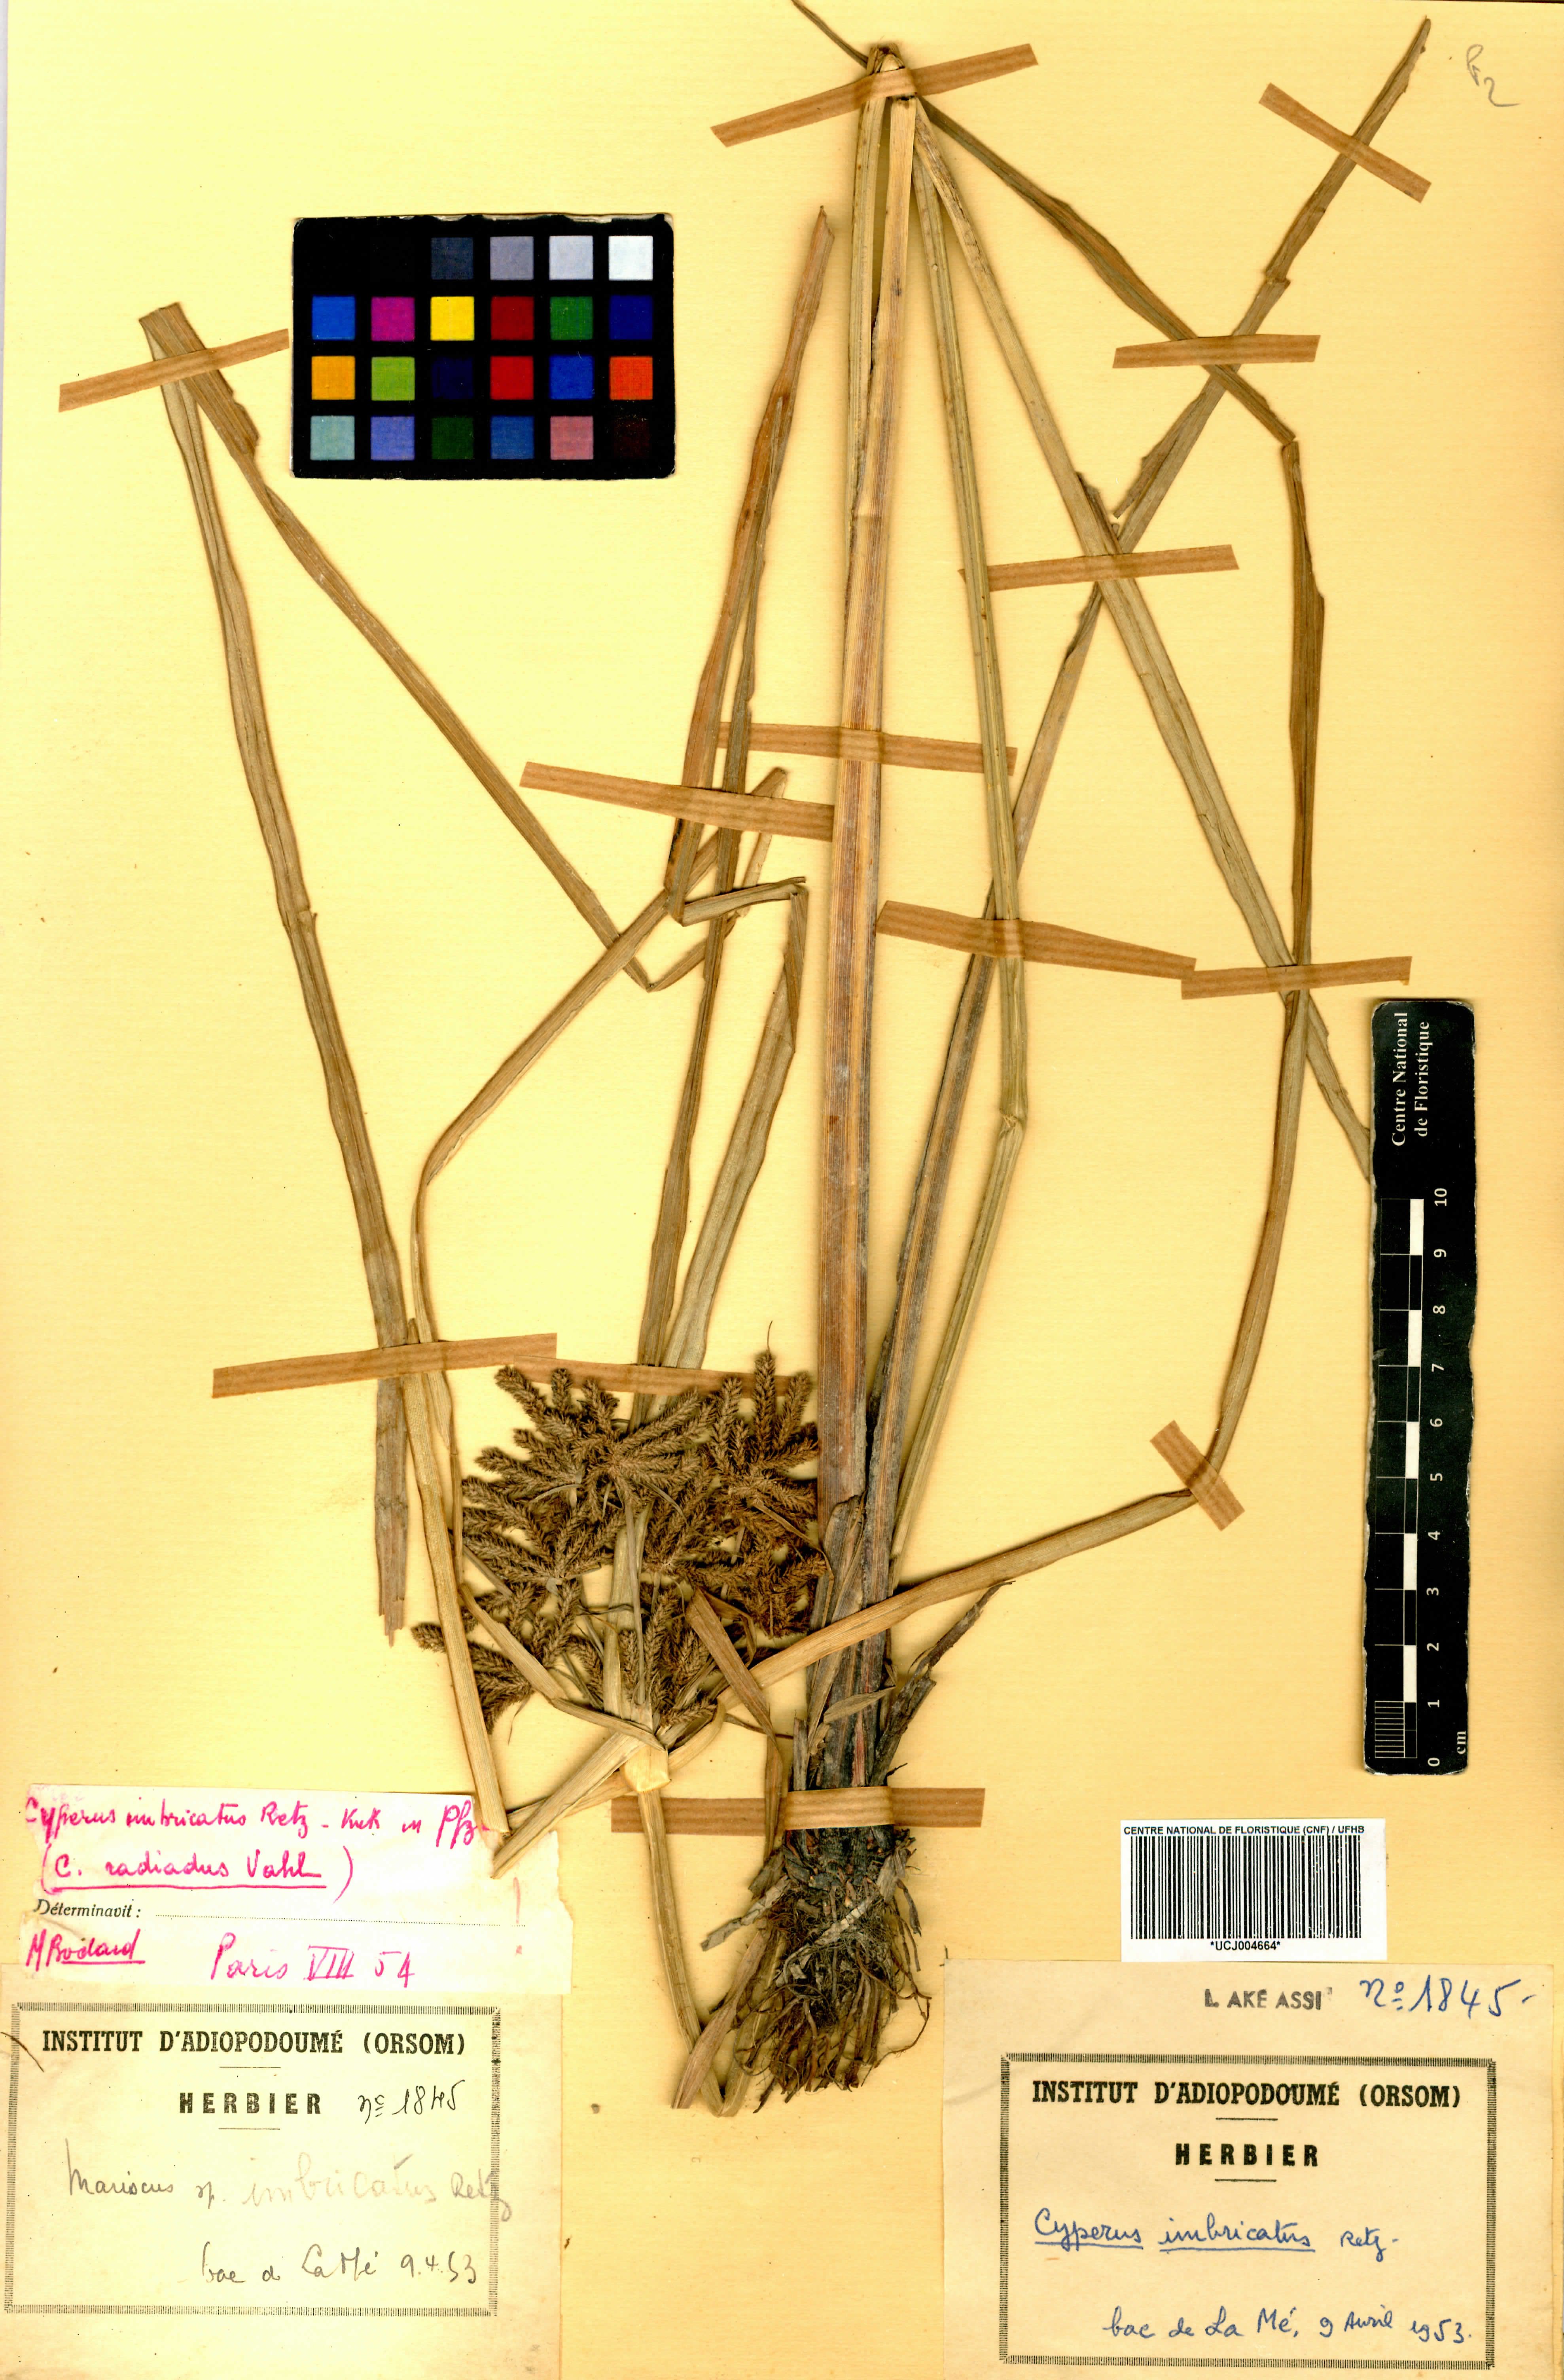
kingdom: Plantae
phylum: Tracheophyta
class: Liliopsida
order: Poales
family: Cyperaceae
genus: Cyperus
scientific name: Cyperus imbricatus
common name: Shingle flatsedge
